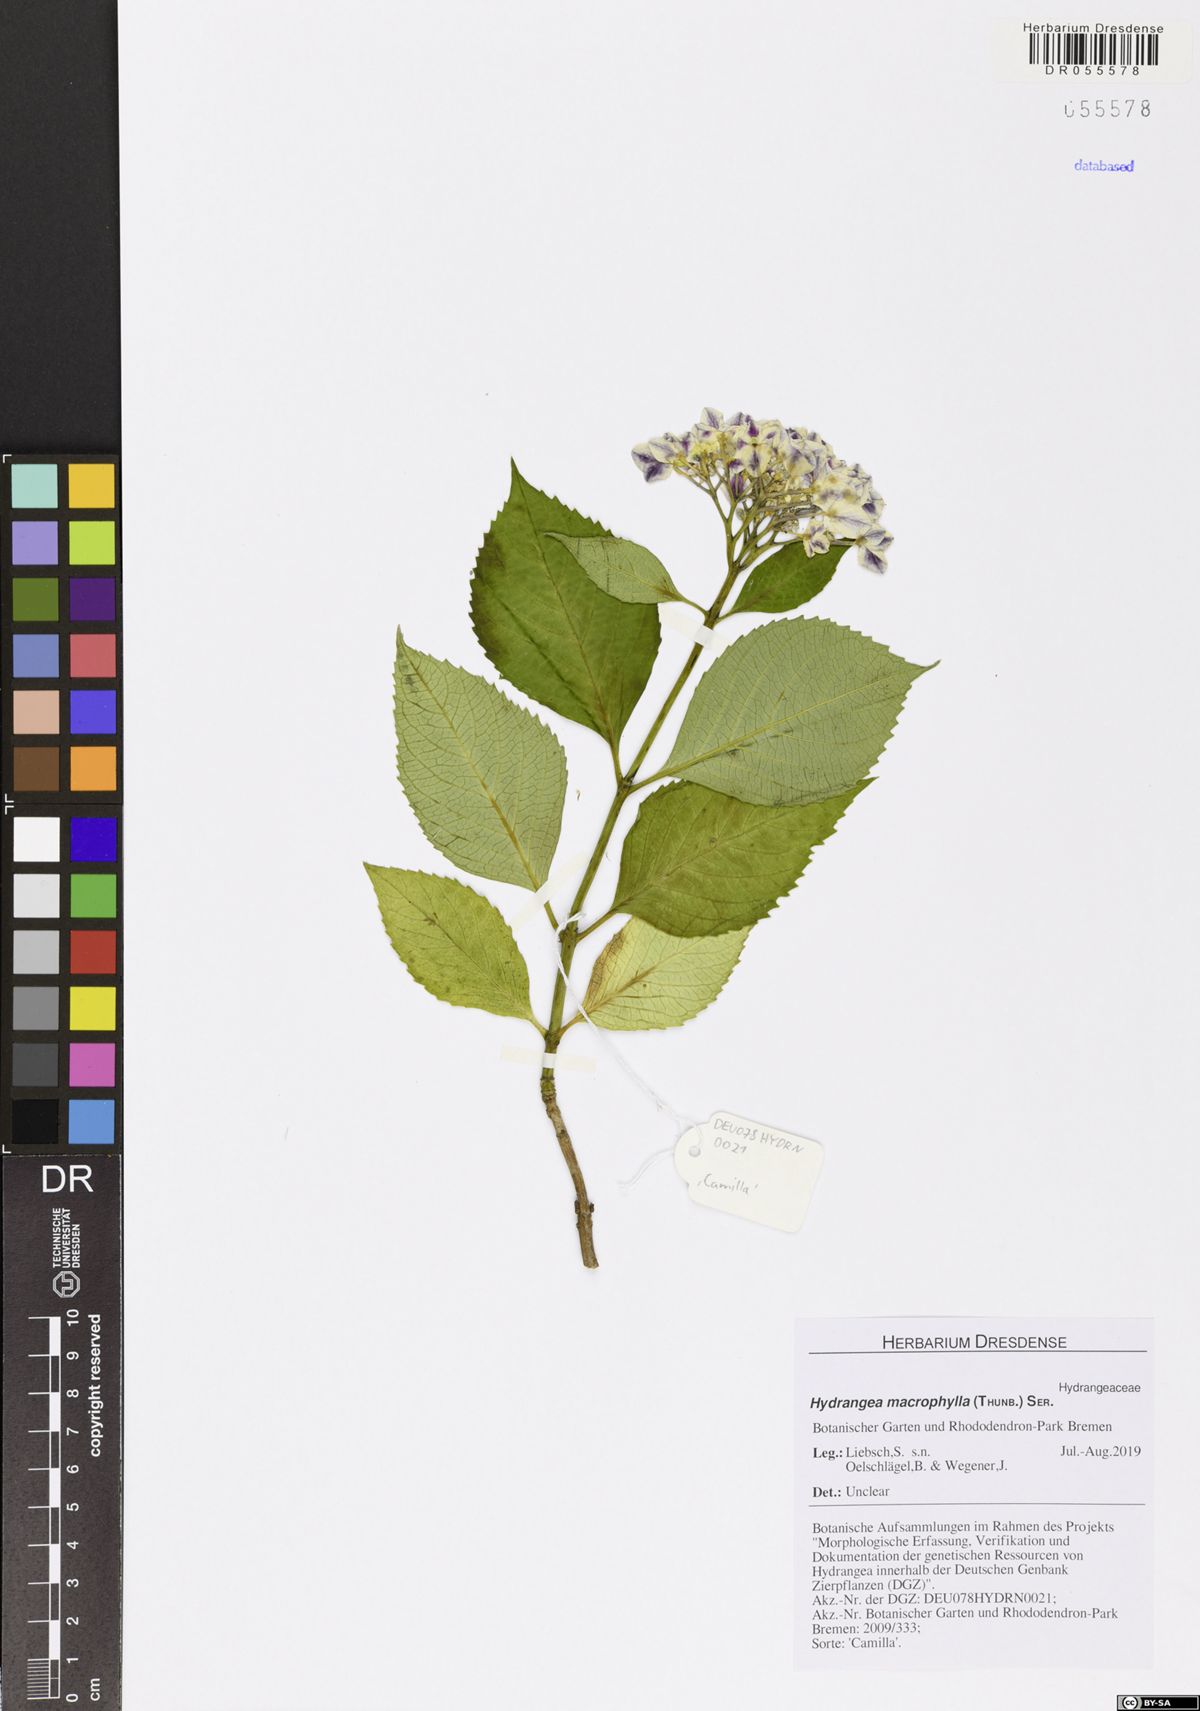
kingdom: Plantae
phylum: Tracheophyta
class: Magnoliopsida
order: Cornales
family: Hydrangeaceae
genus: Hydrangea
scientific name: Hydrangea macrophylla
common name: Hydrangea
